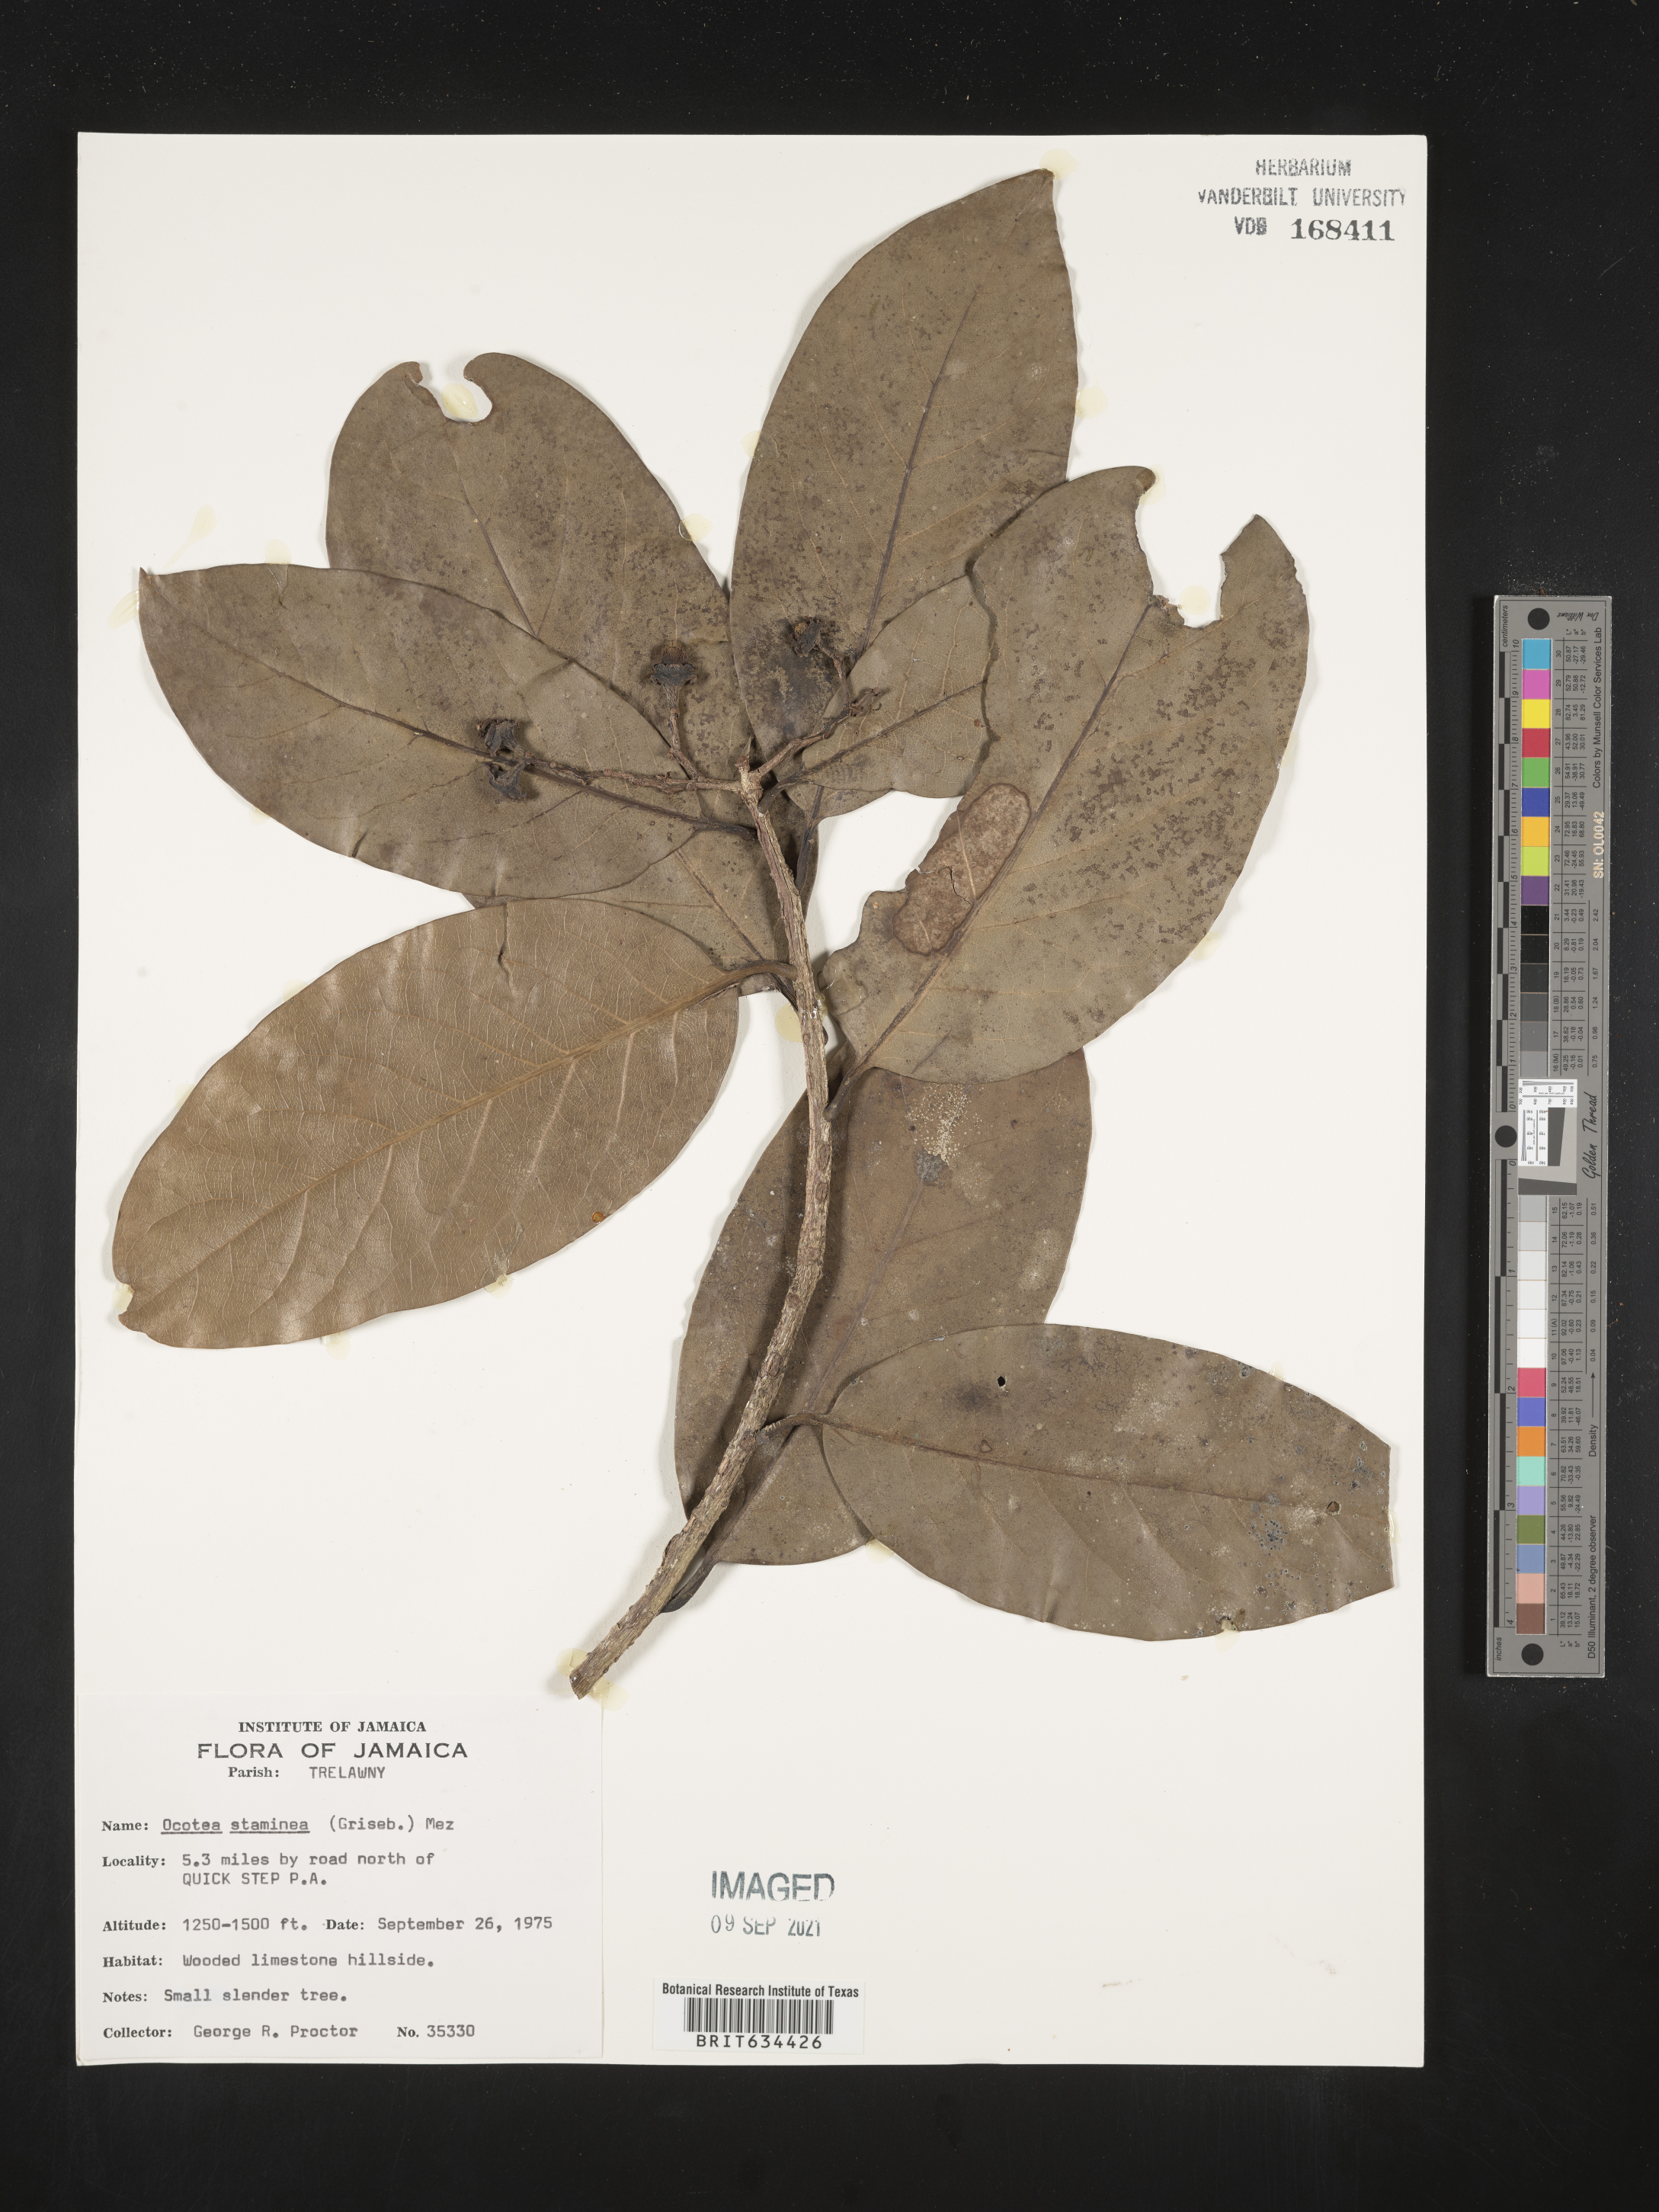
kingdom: Plantae
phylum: Tracheophyta
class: Magnoliopsida
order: Laurales
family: Lauraceae
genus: Ocotea
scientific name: Ocotea
